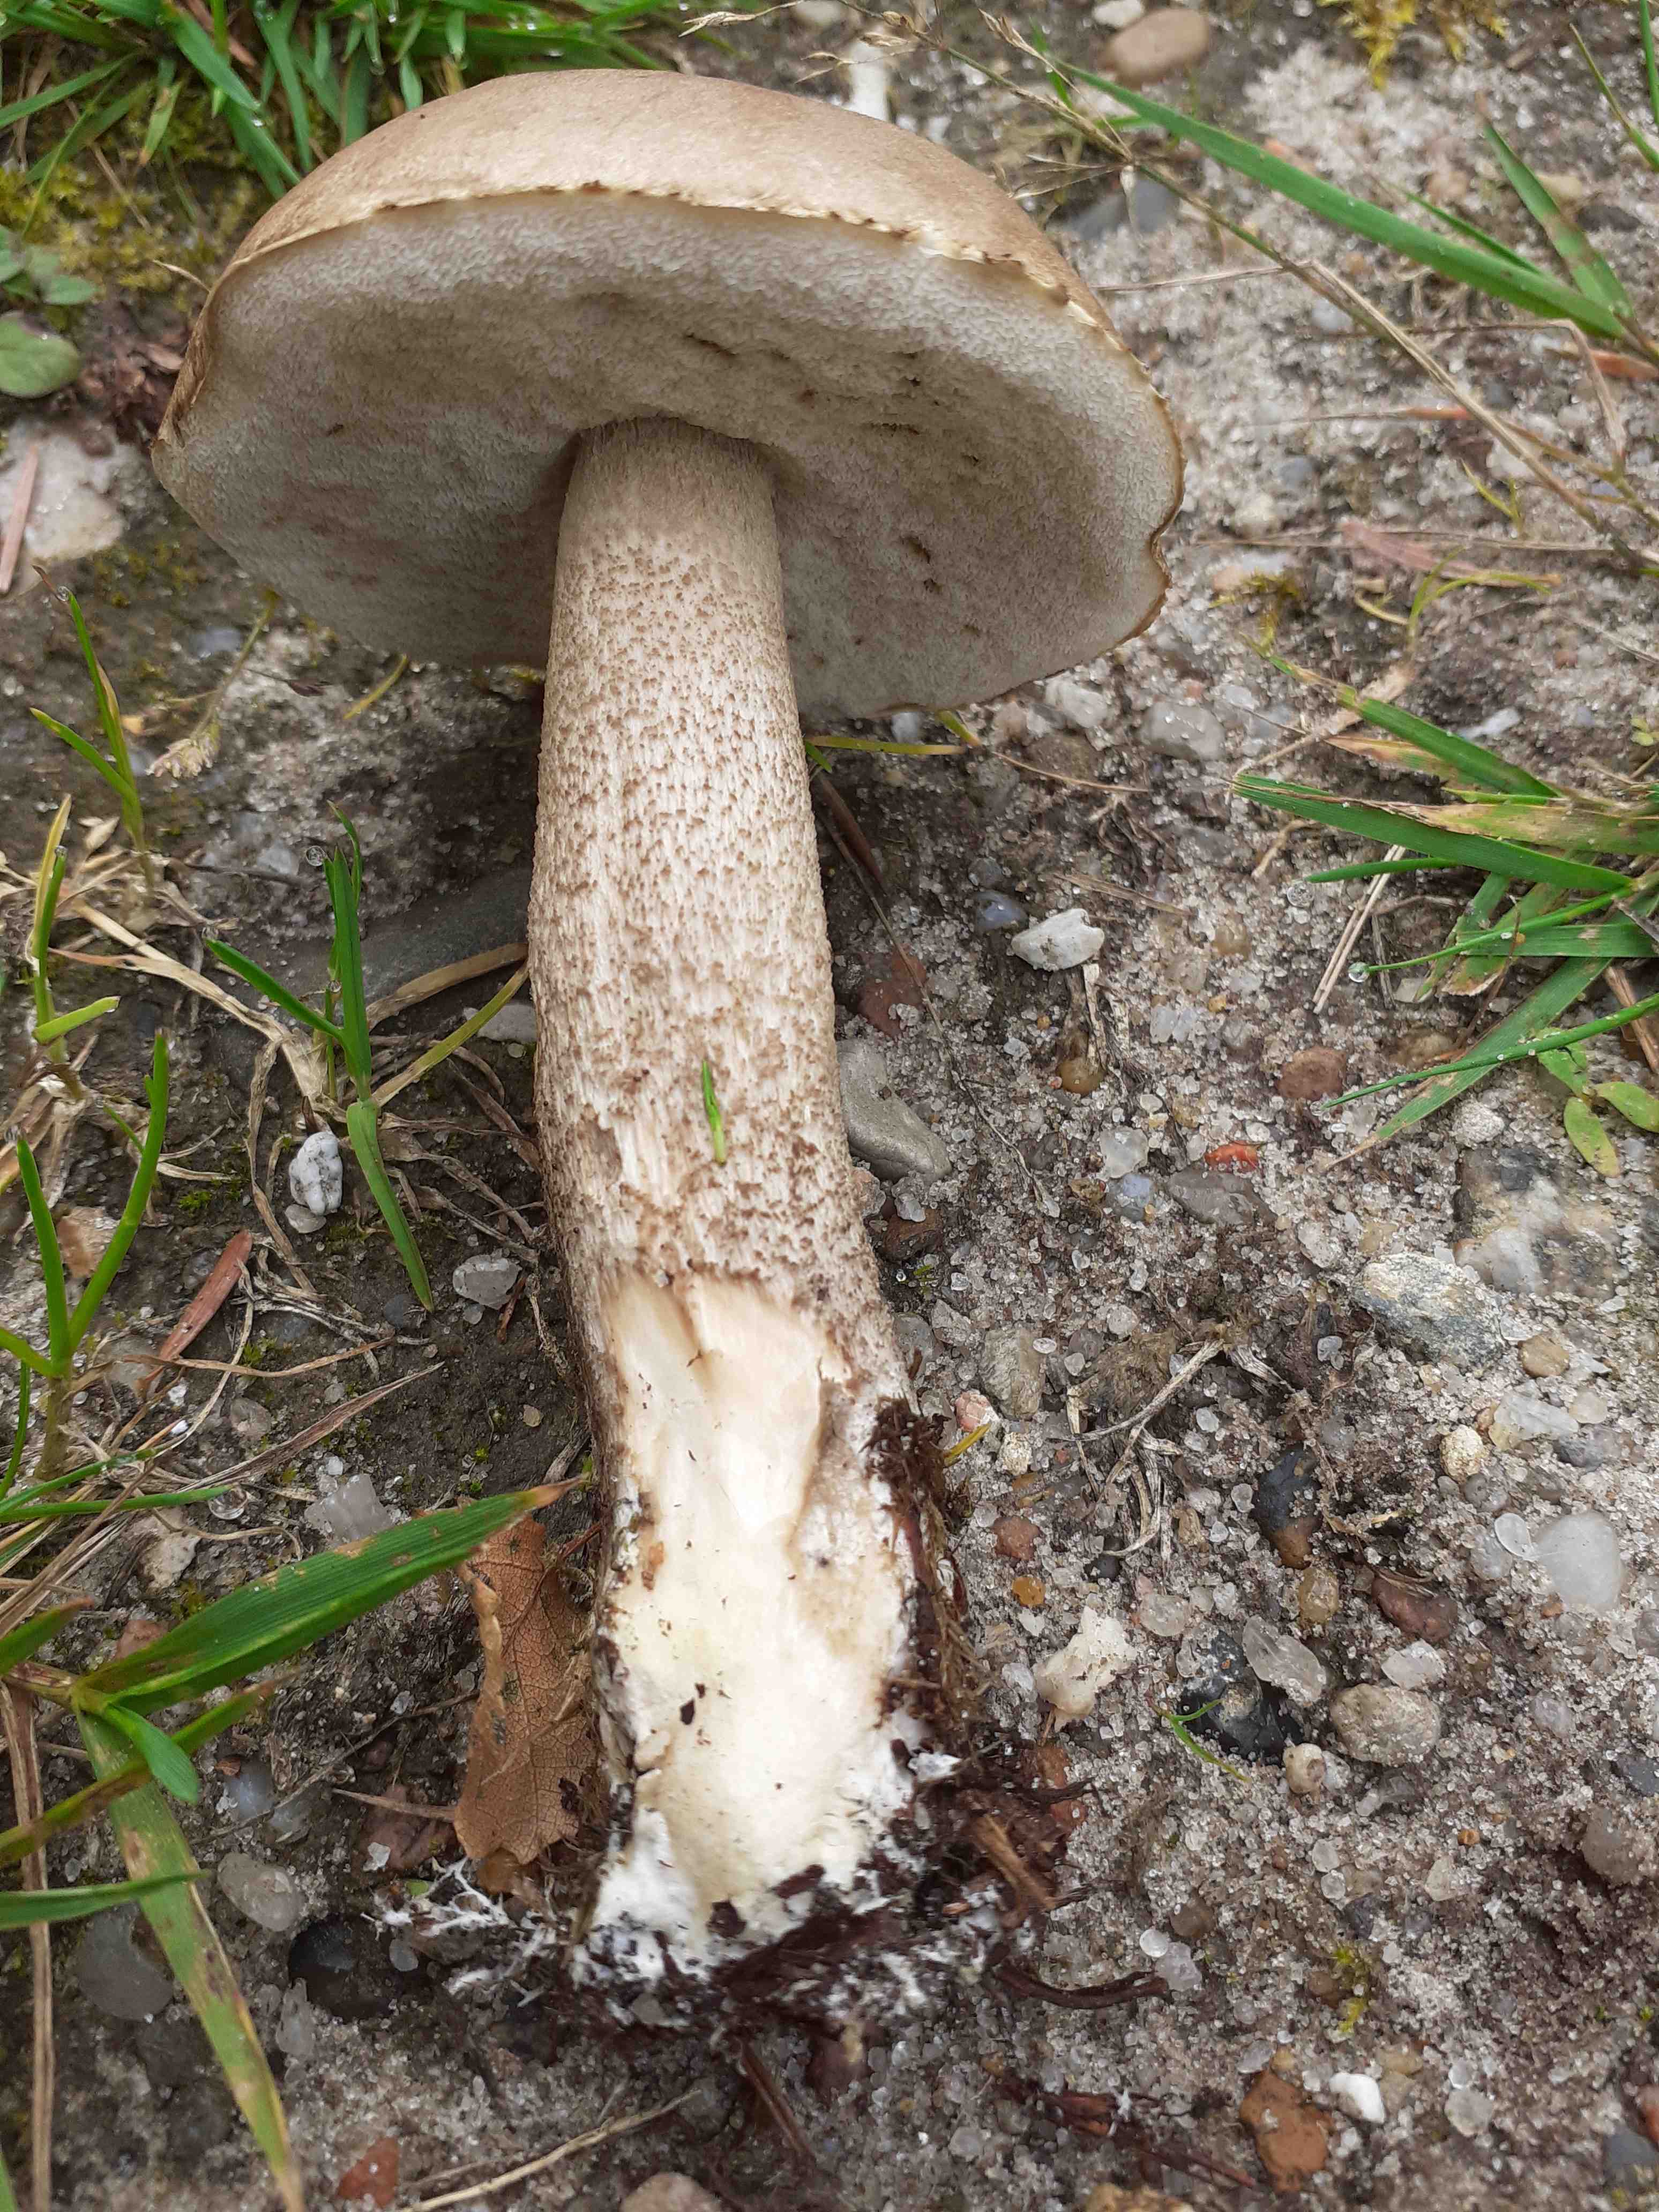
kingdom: Fungi
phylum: Basidiomycota
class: Agaricomycetes
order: Boletales
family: Boletaceae
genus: Leccinum
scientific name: Leccinum scabrum
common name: brun skælrørhat
